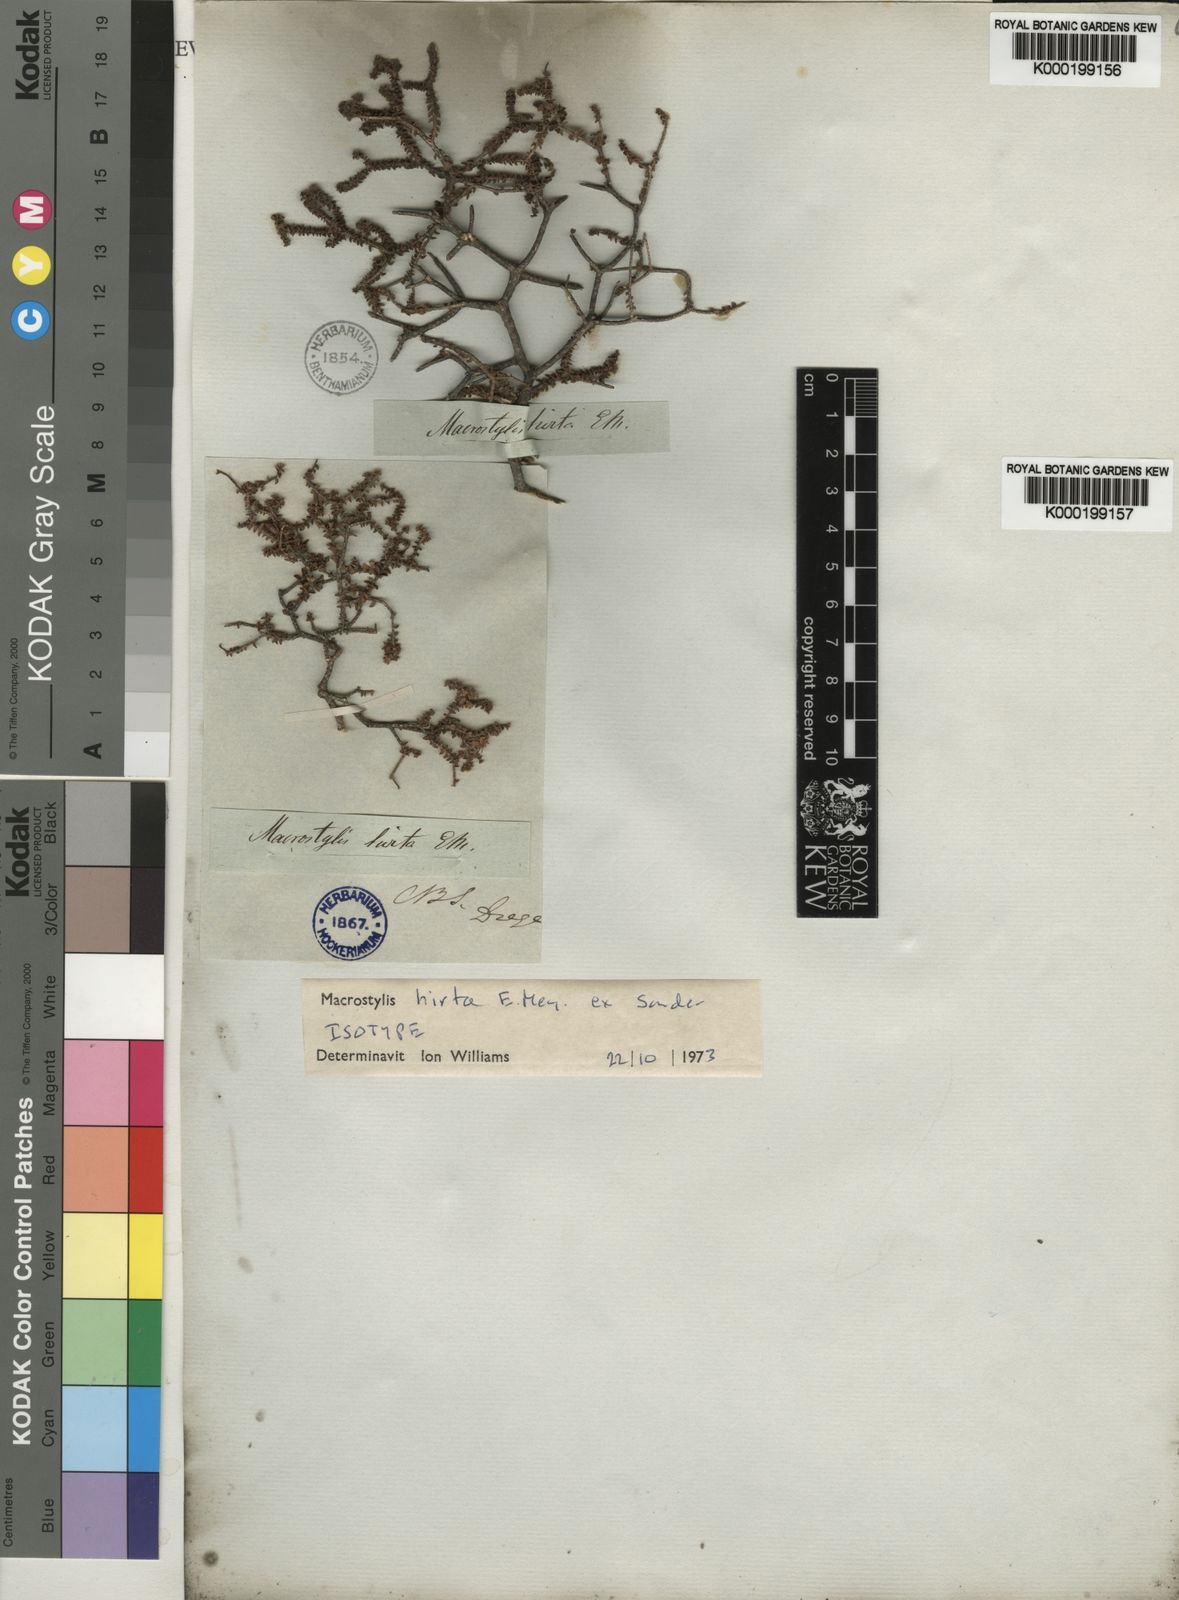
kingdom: Plantae
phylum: Tracheophyta
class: Magnoliopsida
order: Sapindales
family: Rutaceae
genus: Macrostylis
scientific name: Macrostylis hirta
